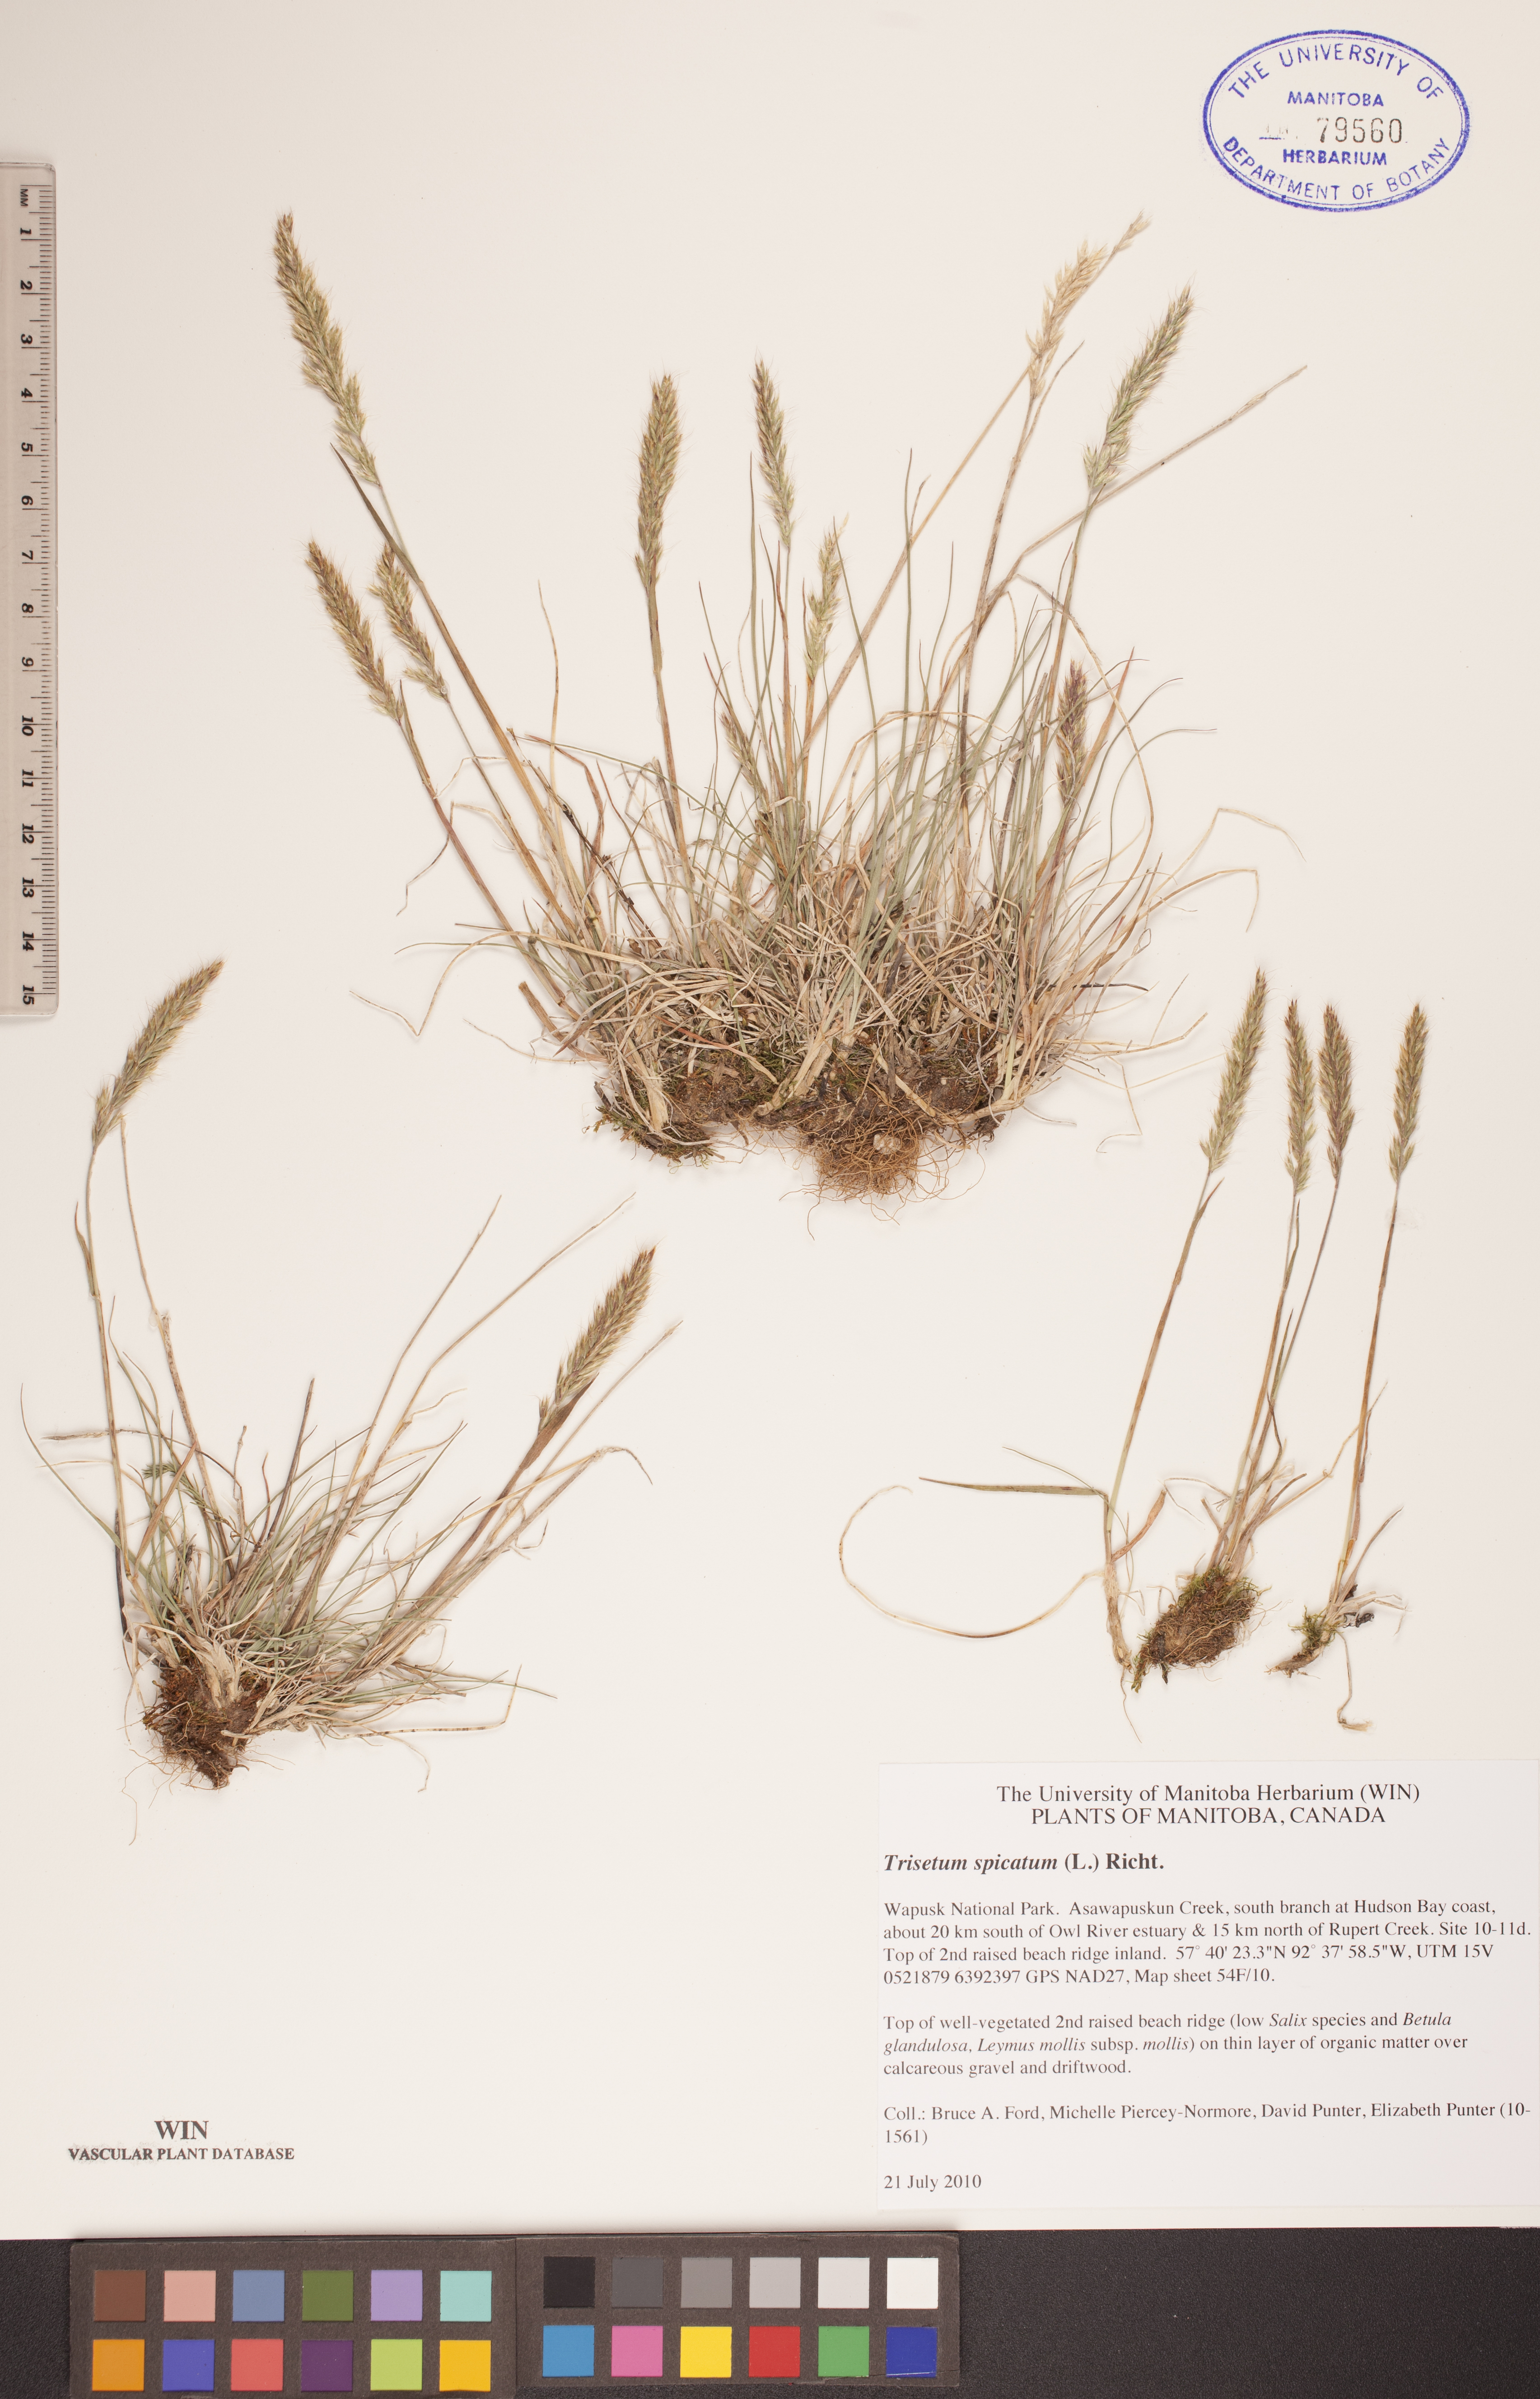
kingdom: Plantae
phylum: Tracheophyta
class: Liliopsida
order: Poales
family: Poaceae
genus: Koeleria
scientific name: Koeleria spicata
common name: Mountain trisetum
